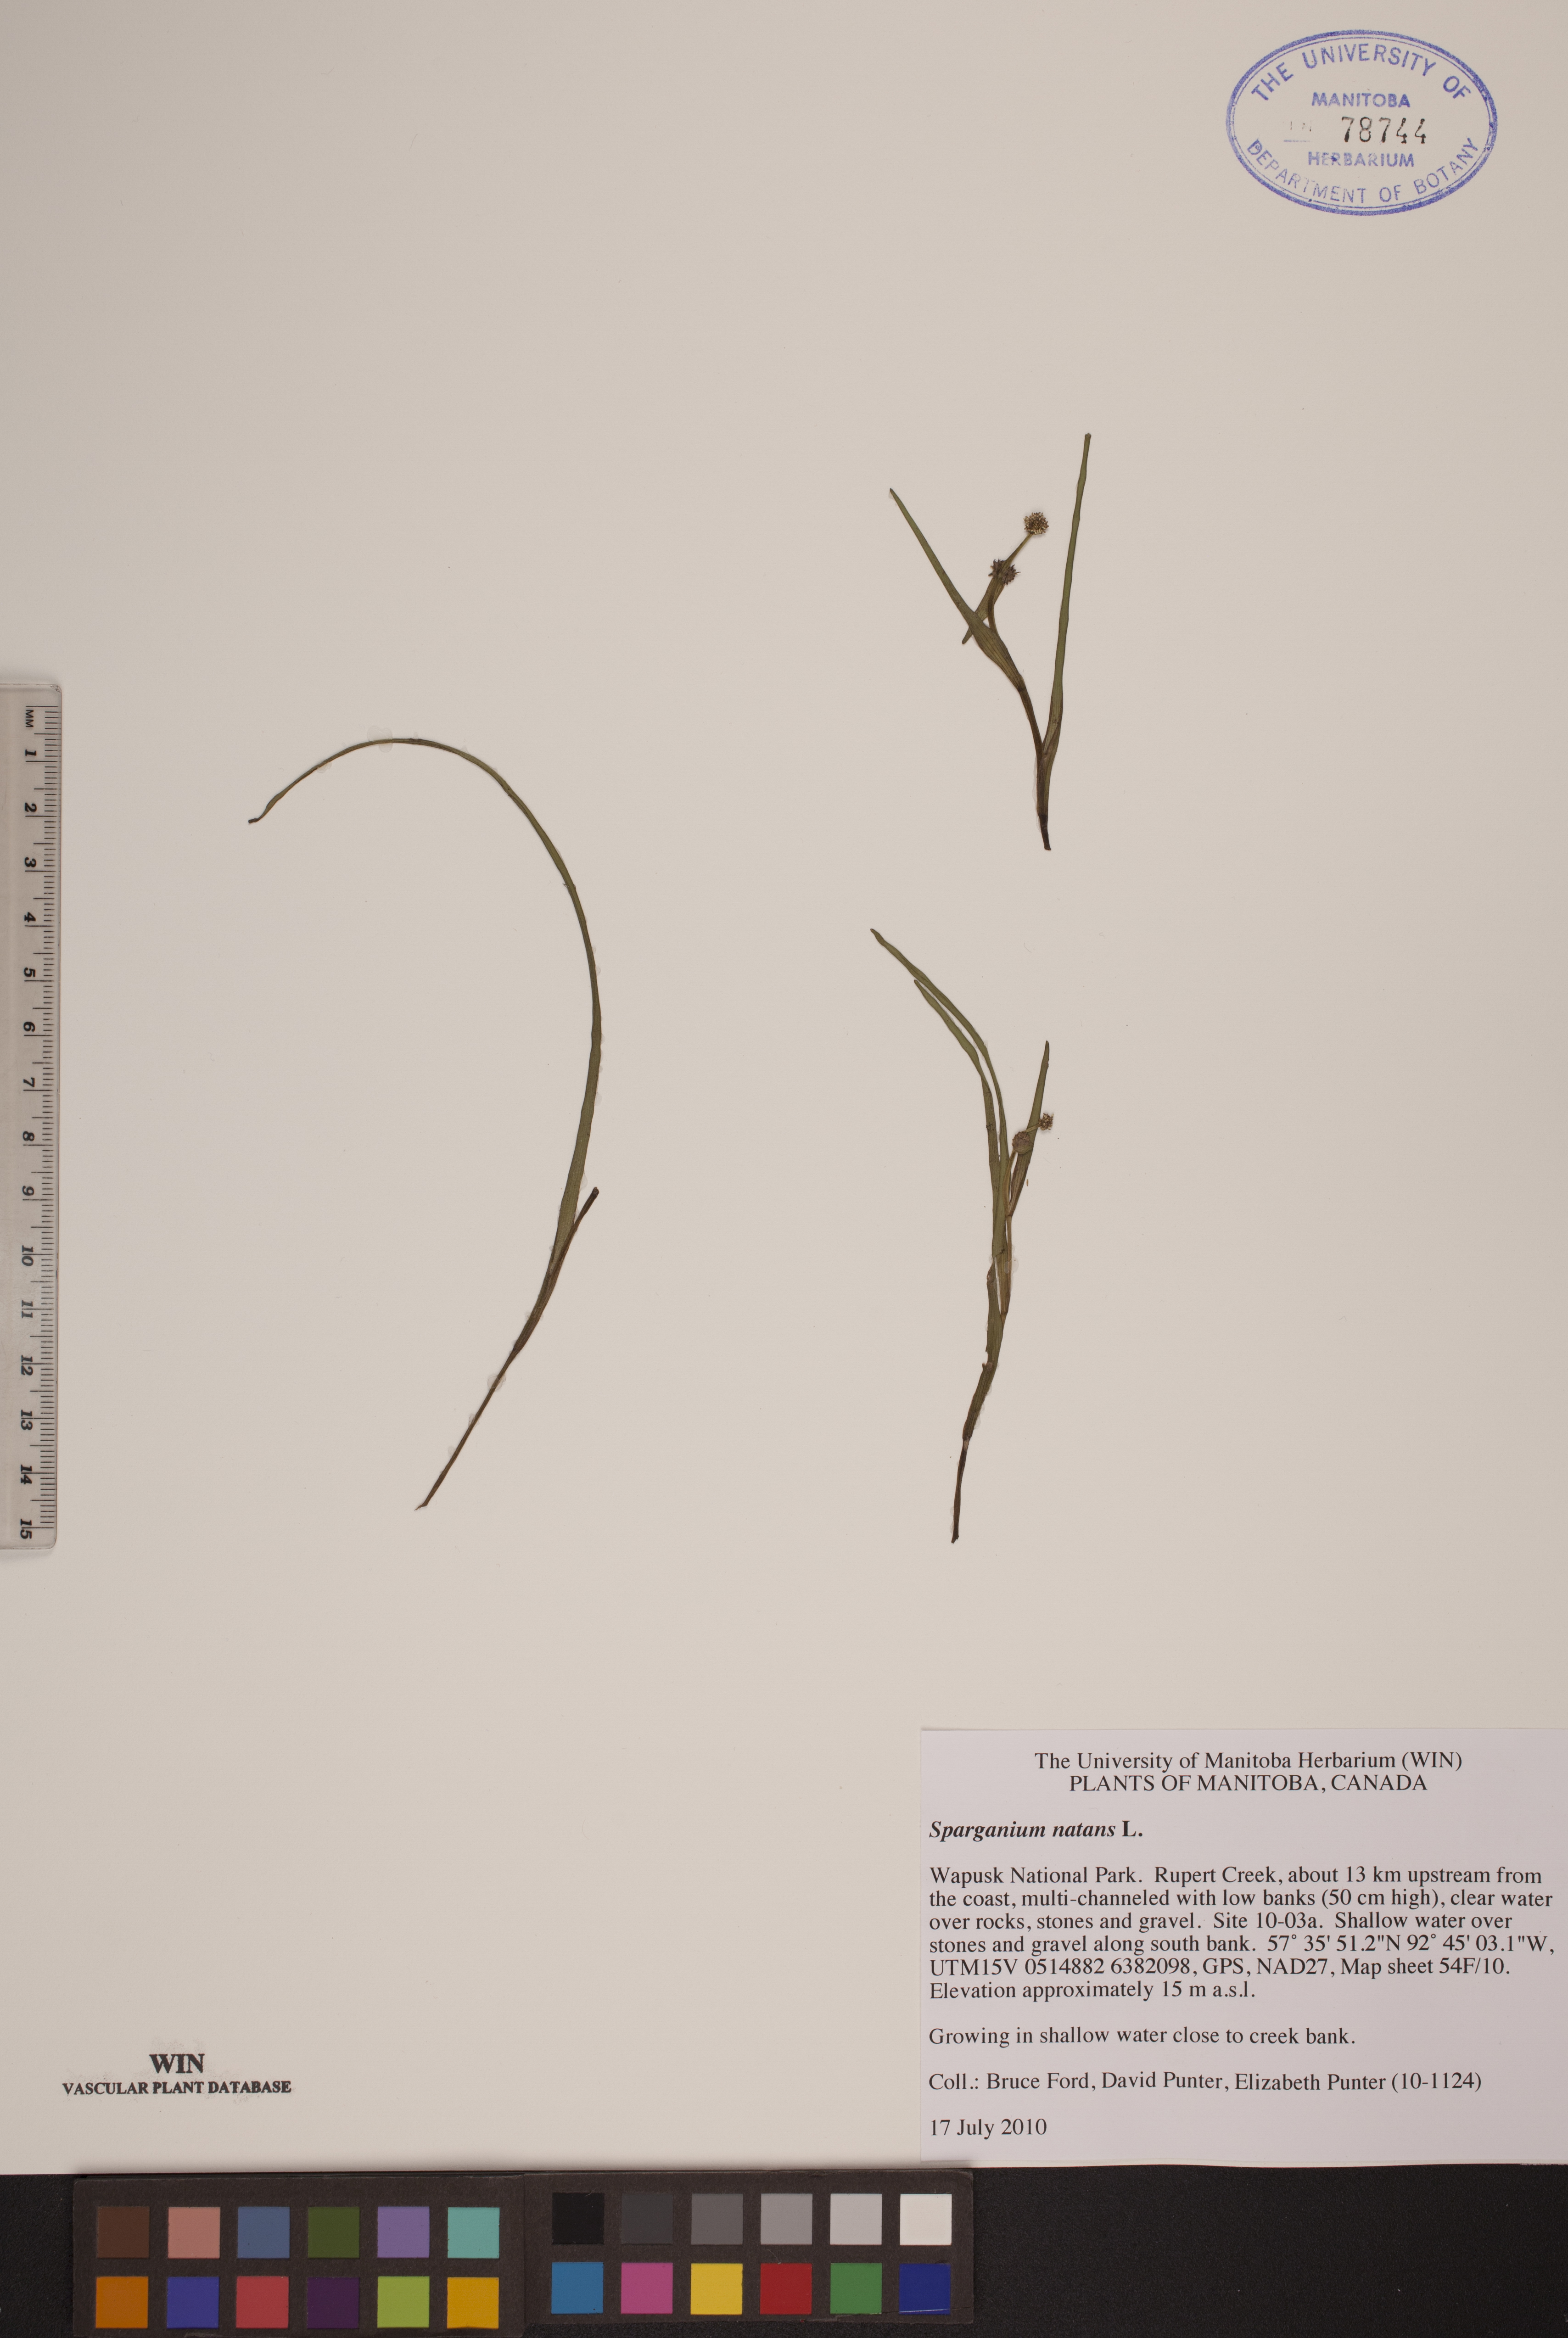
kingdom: Plantae
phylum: Tracheophyta
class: Liliopsida
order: Poales
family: Typhaceae
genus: Sparganium
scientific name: Sparganium natans
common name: Least bur-reed
